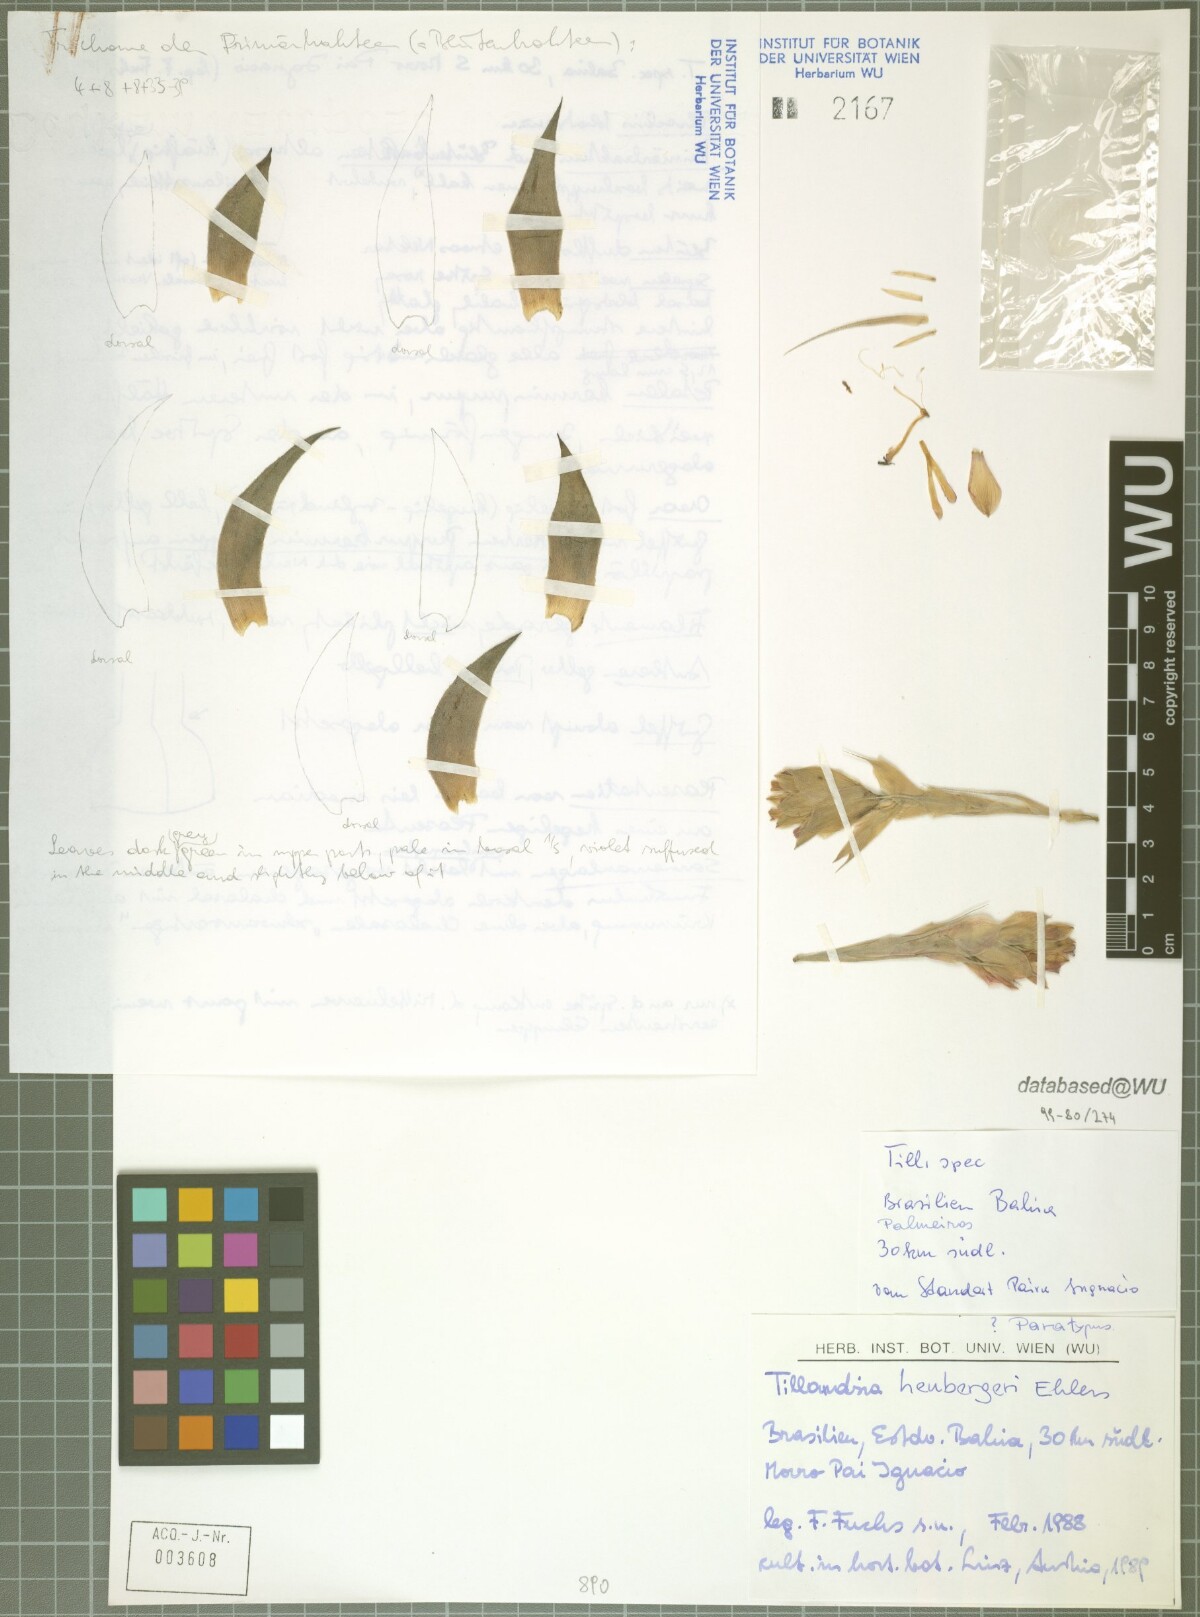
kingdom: Plantae
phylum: Tracheophyta
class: Liliopsida
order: Poales
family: Bromeliaceae
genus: Tillandsia
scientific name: Tillandsia heubergeri
